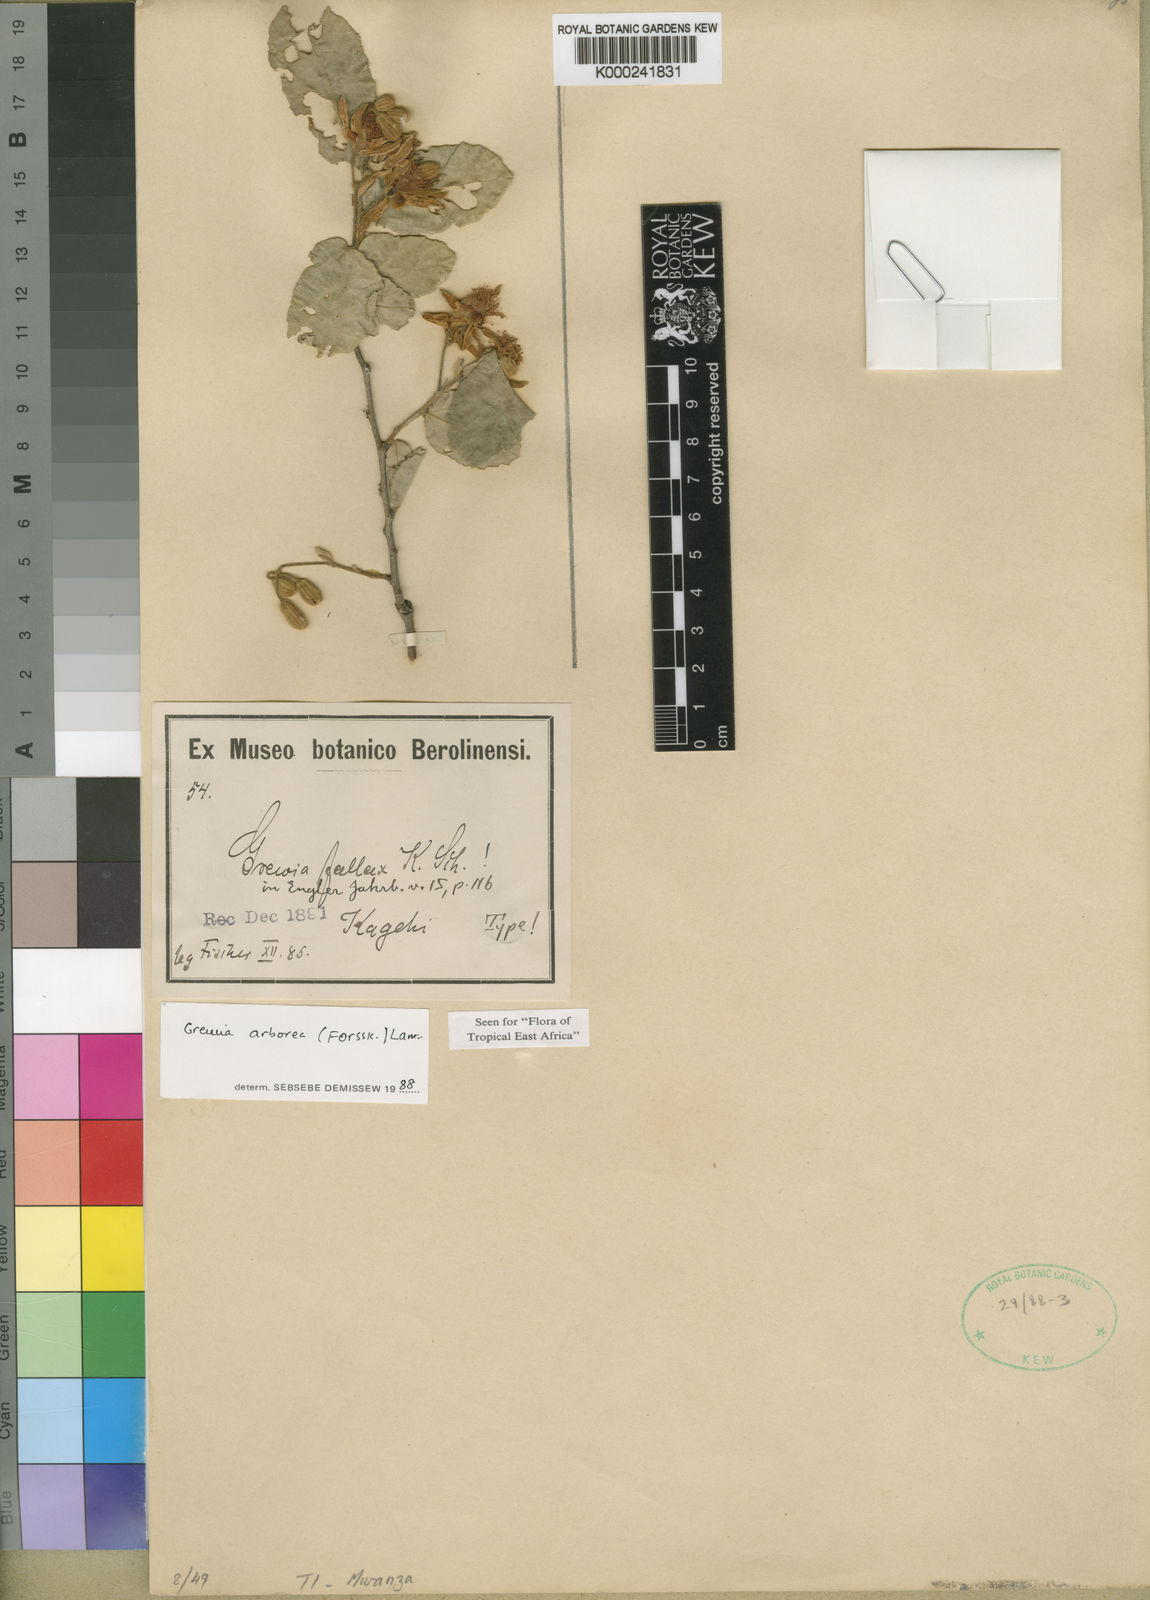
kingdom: Plantae
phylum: Tracheophyta
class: Magnoliopsida
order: Malvales
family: Malvaceae
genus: Grewia
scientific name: Grewia arborea
